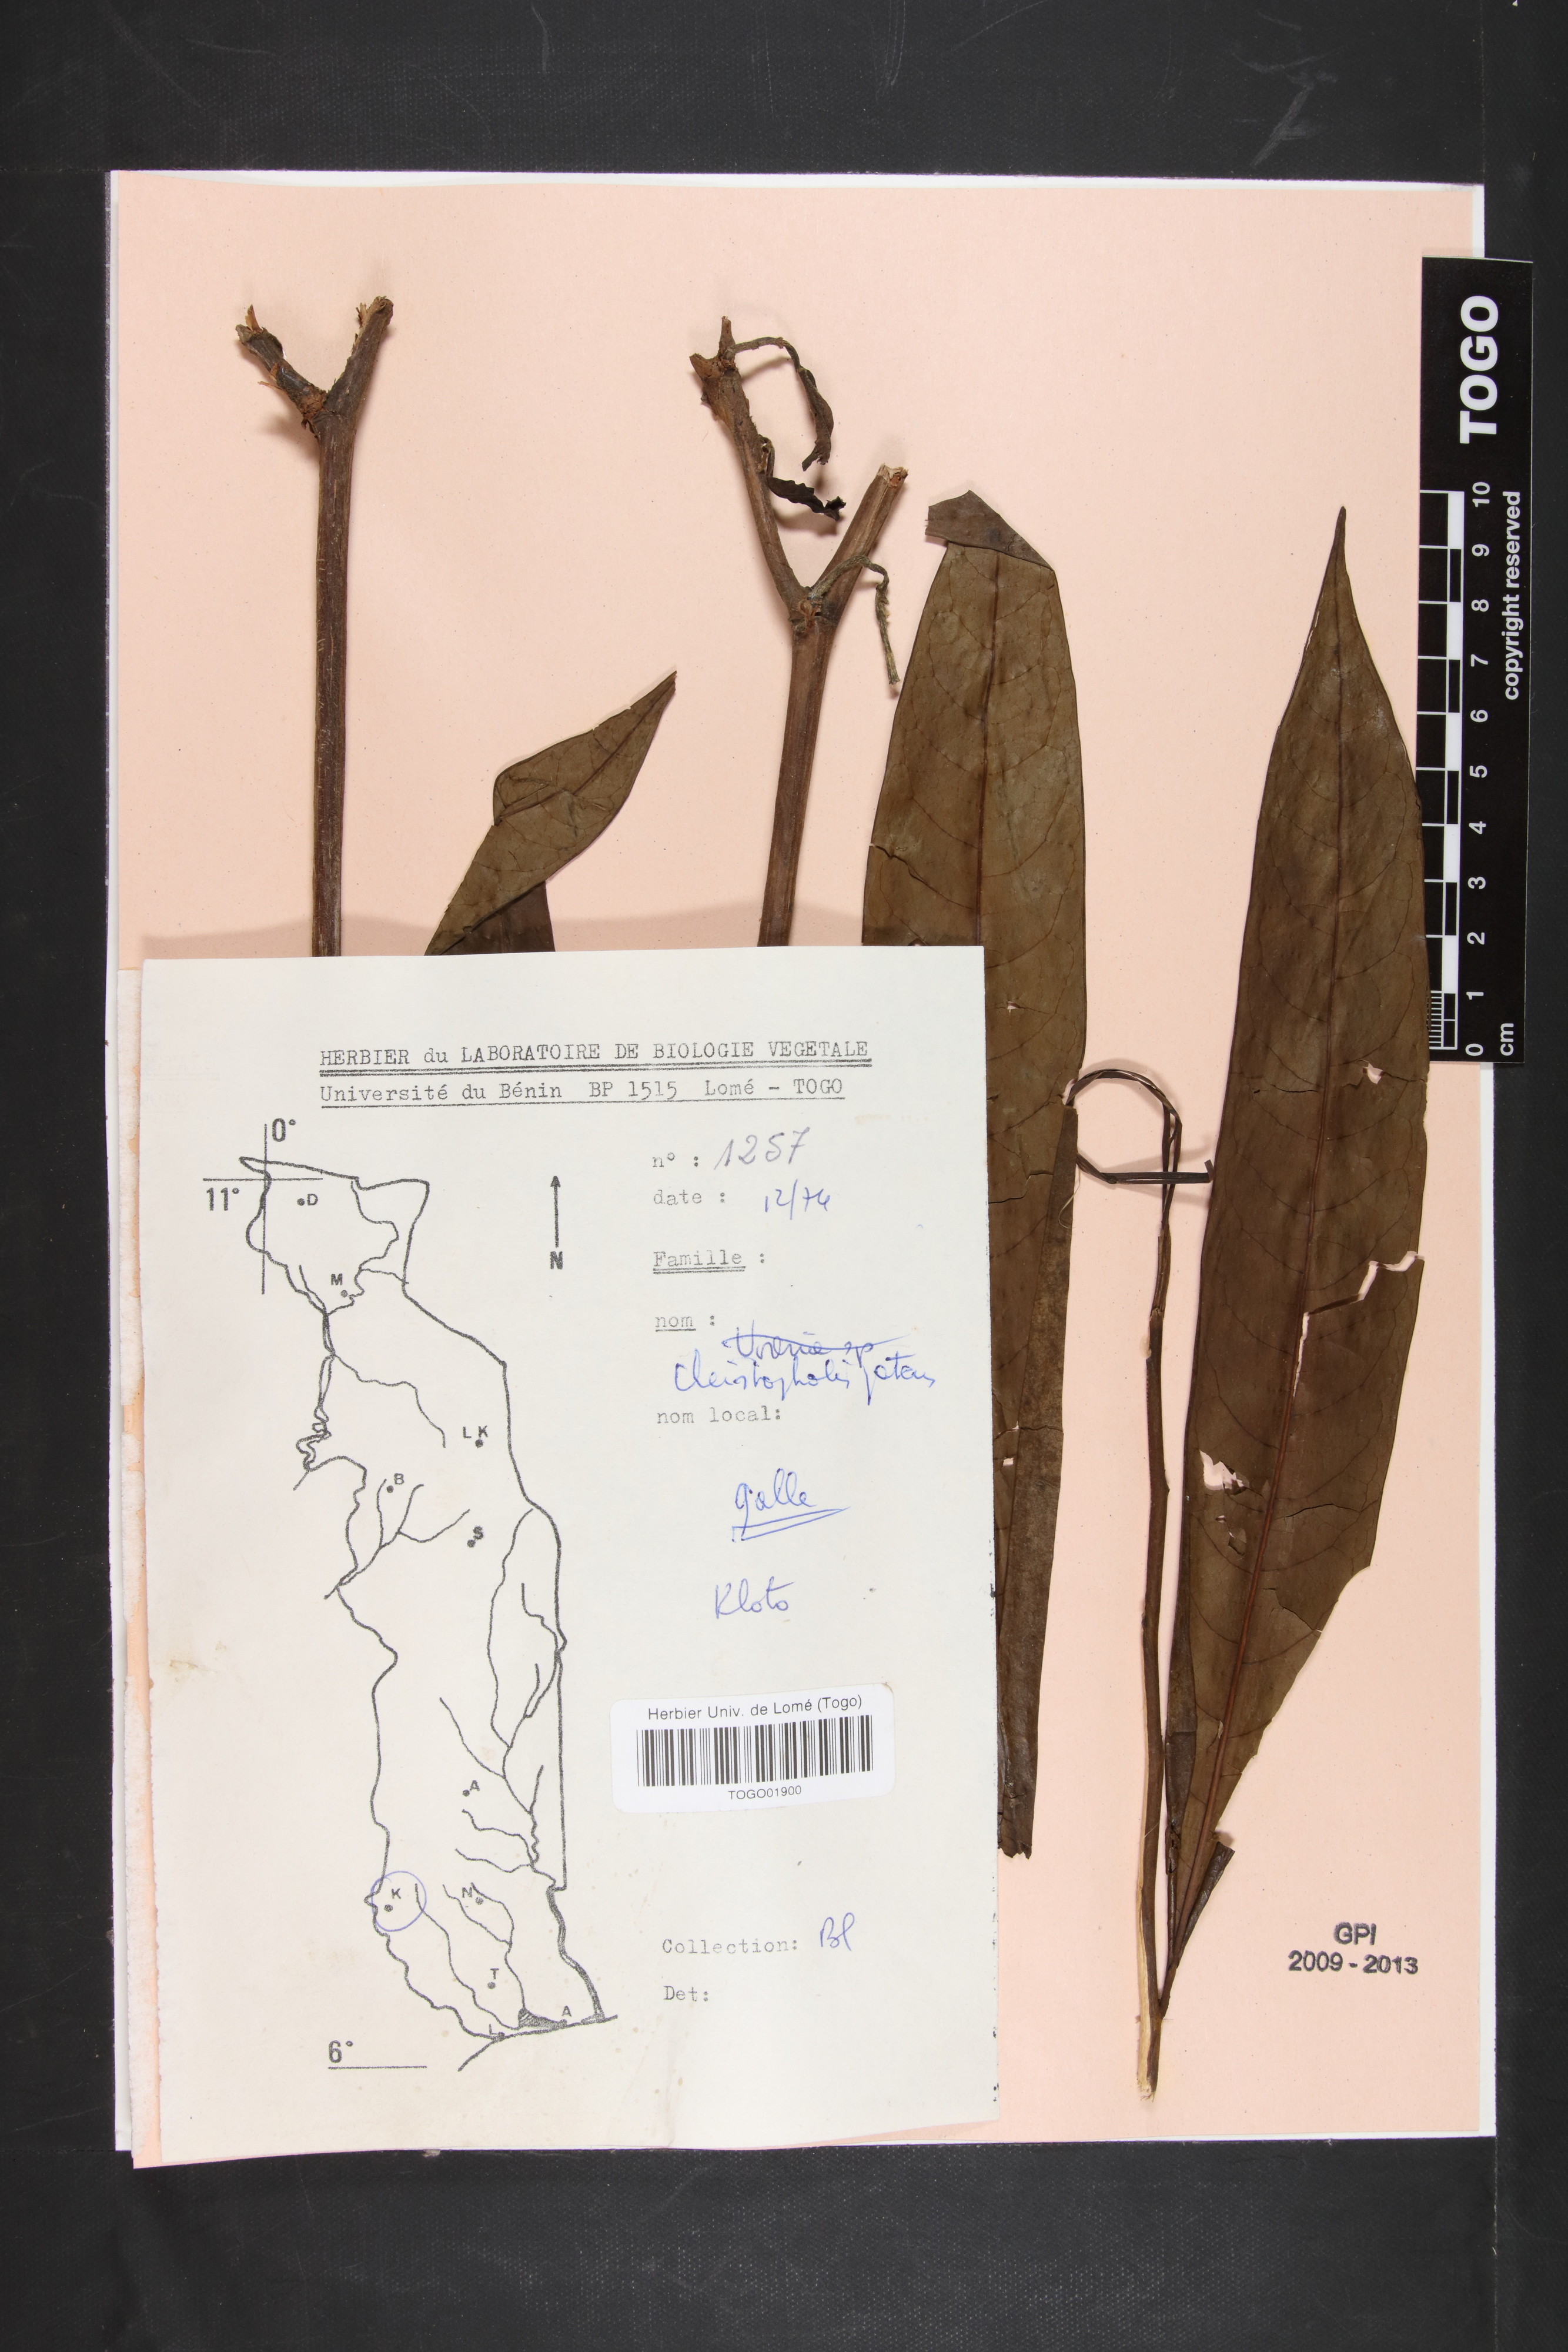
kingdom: Plantae
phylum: Tracheophyta
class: Magnoliopsida
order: Magnoliales
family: Annonaceae
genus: Cleistopholis
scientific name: Cleistopholis patens
